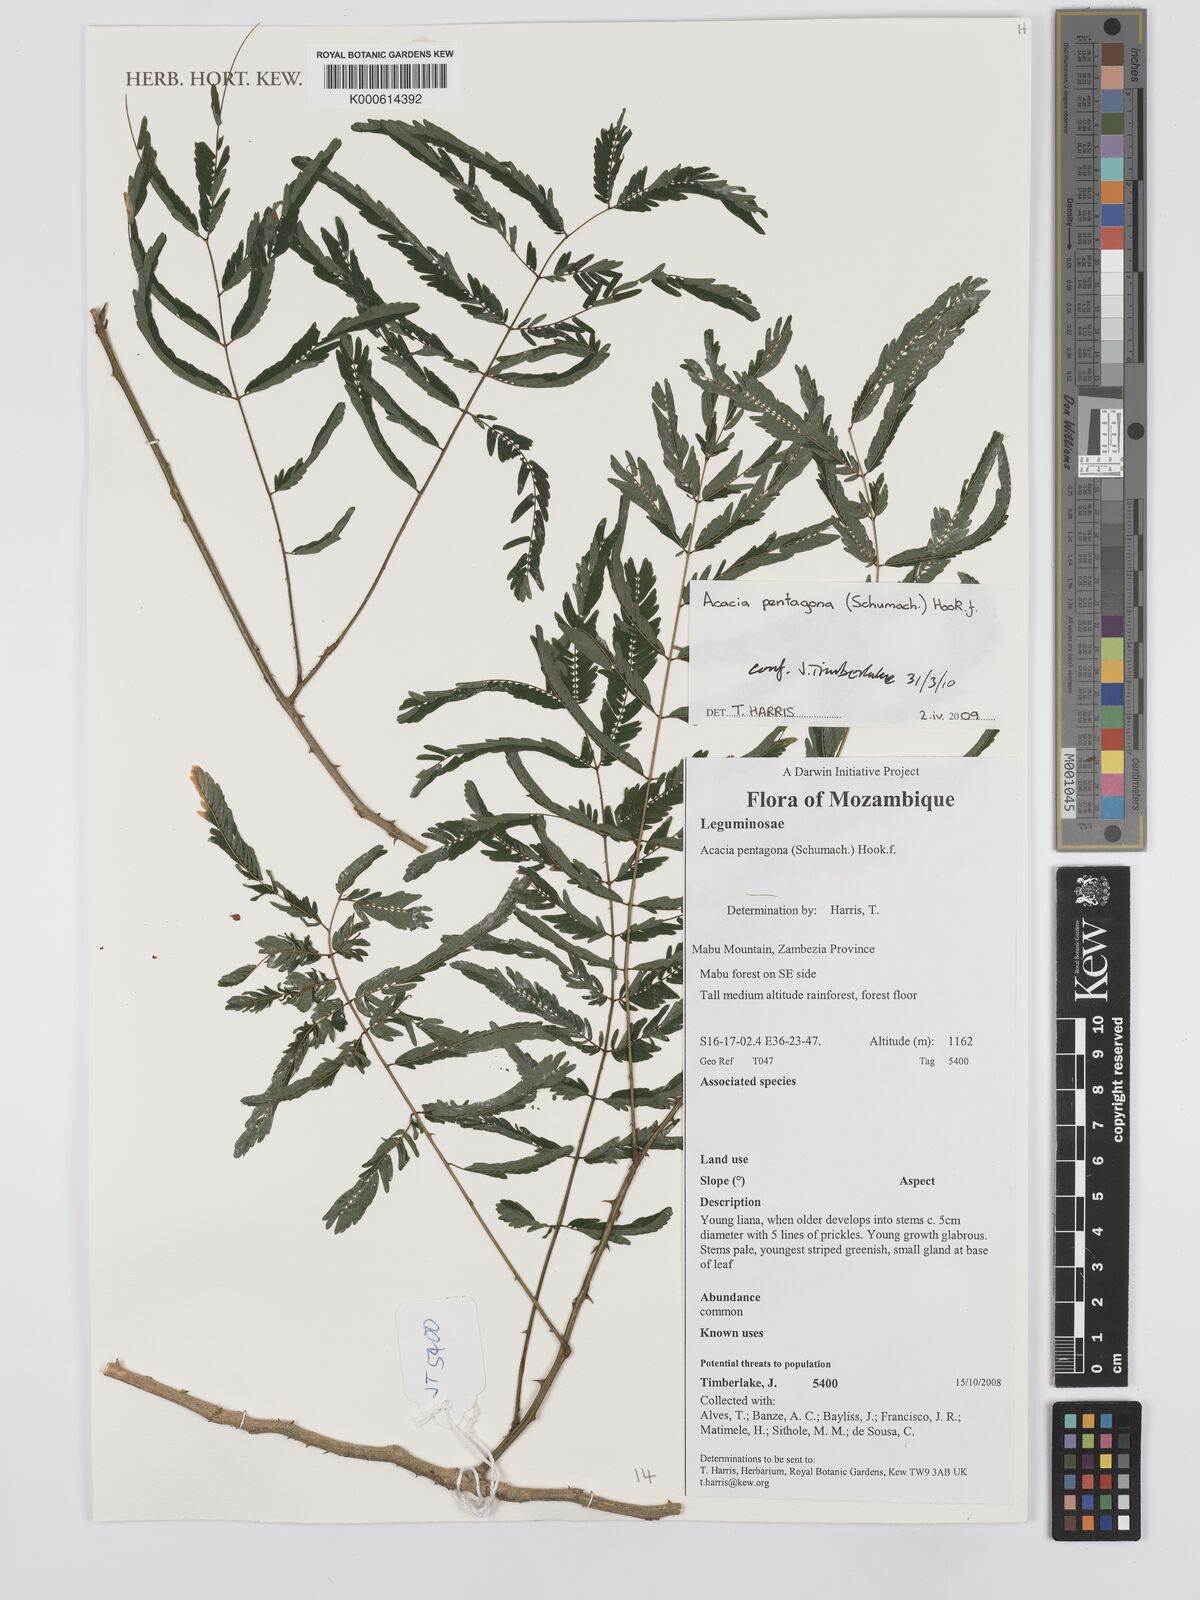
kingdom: Plantae
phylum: Tracheophyta
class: Magnoliopsida
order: Fabales
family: Fabaceae
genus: Senegalia
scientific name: Senegalia pentagona
